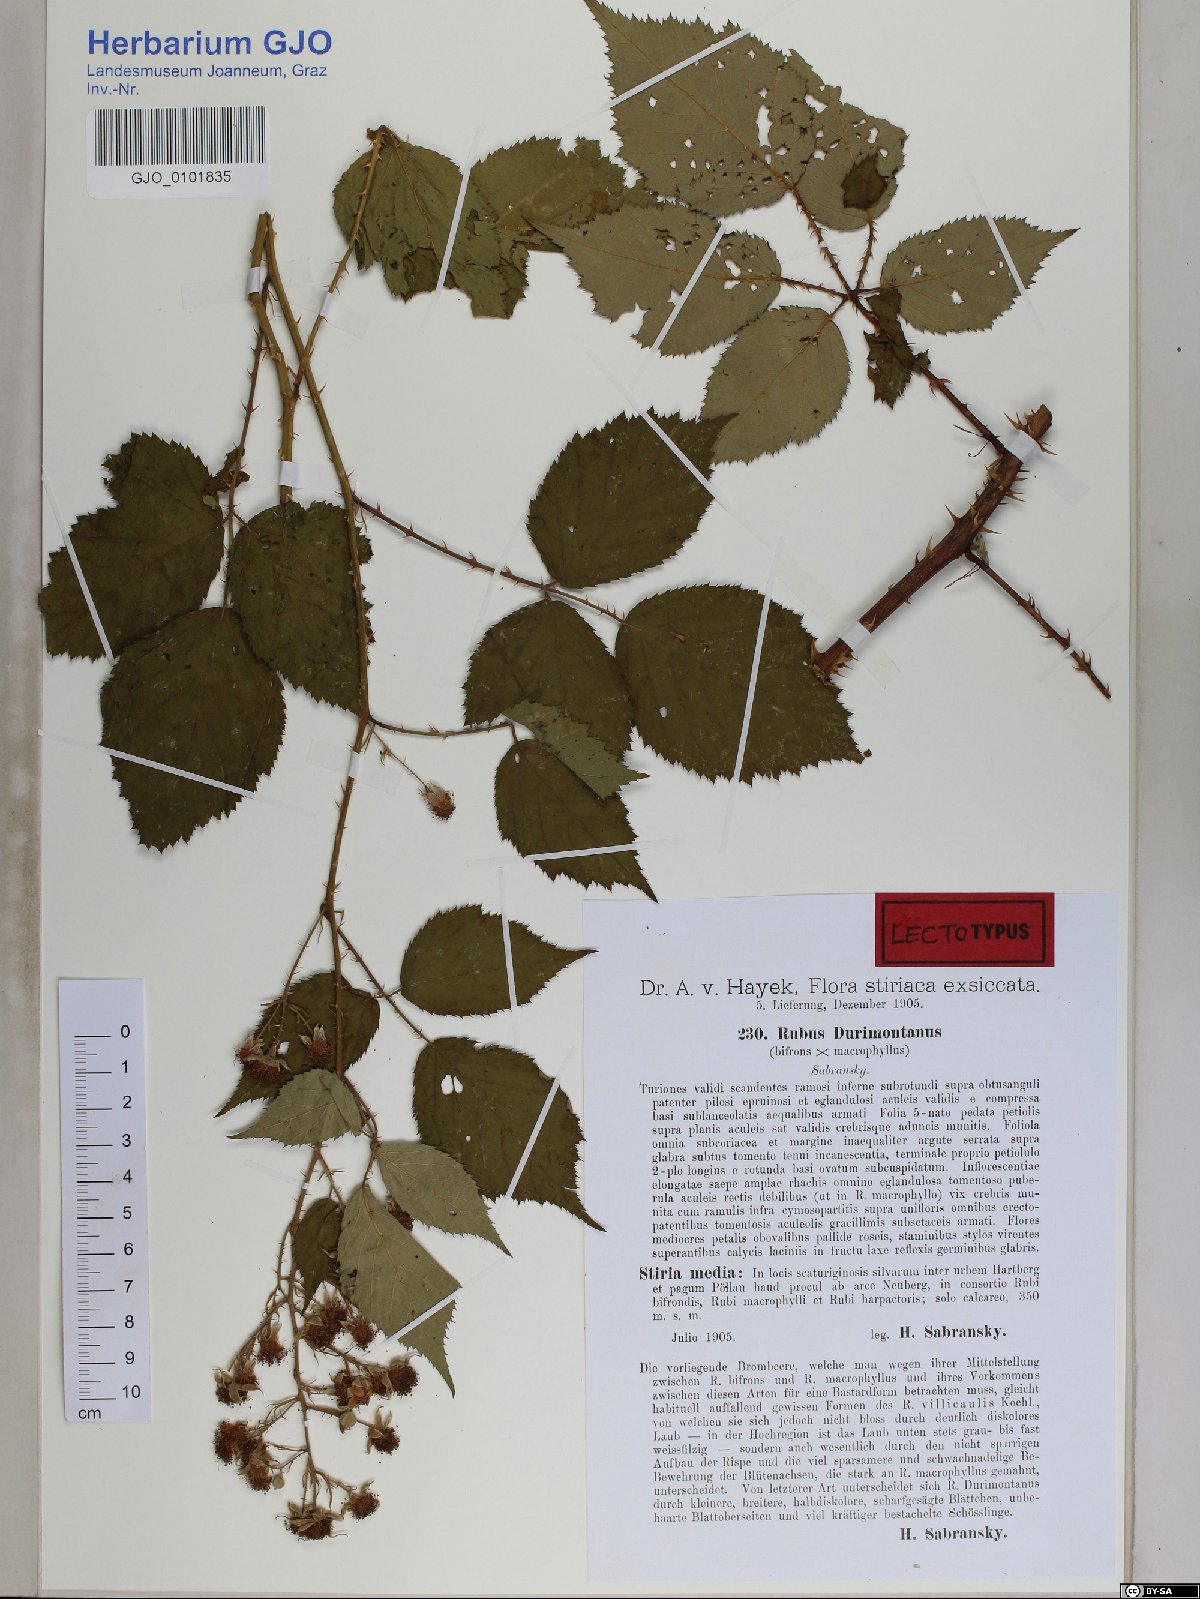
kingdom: Plantae
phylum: Tracheophyta
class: Magnoliopsida
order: Rosales
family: Rosaceae
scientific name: Rosaceae
